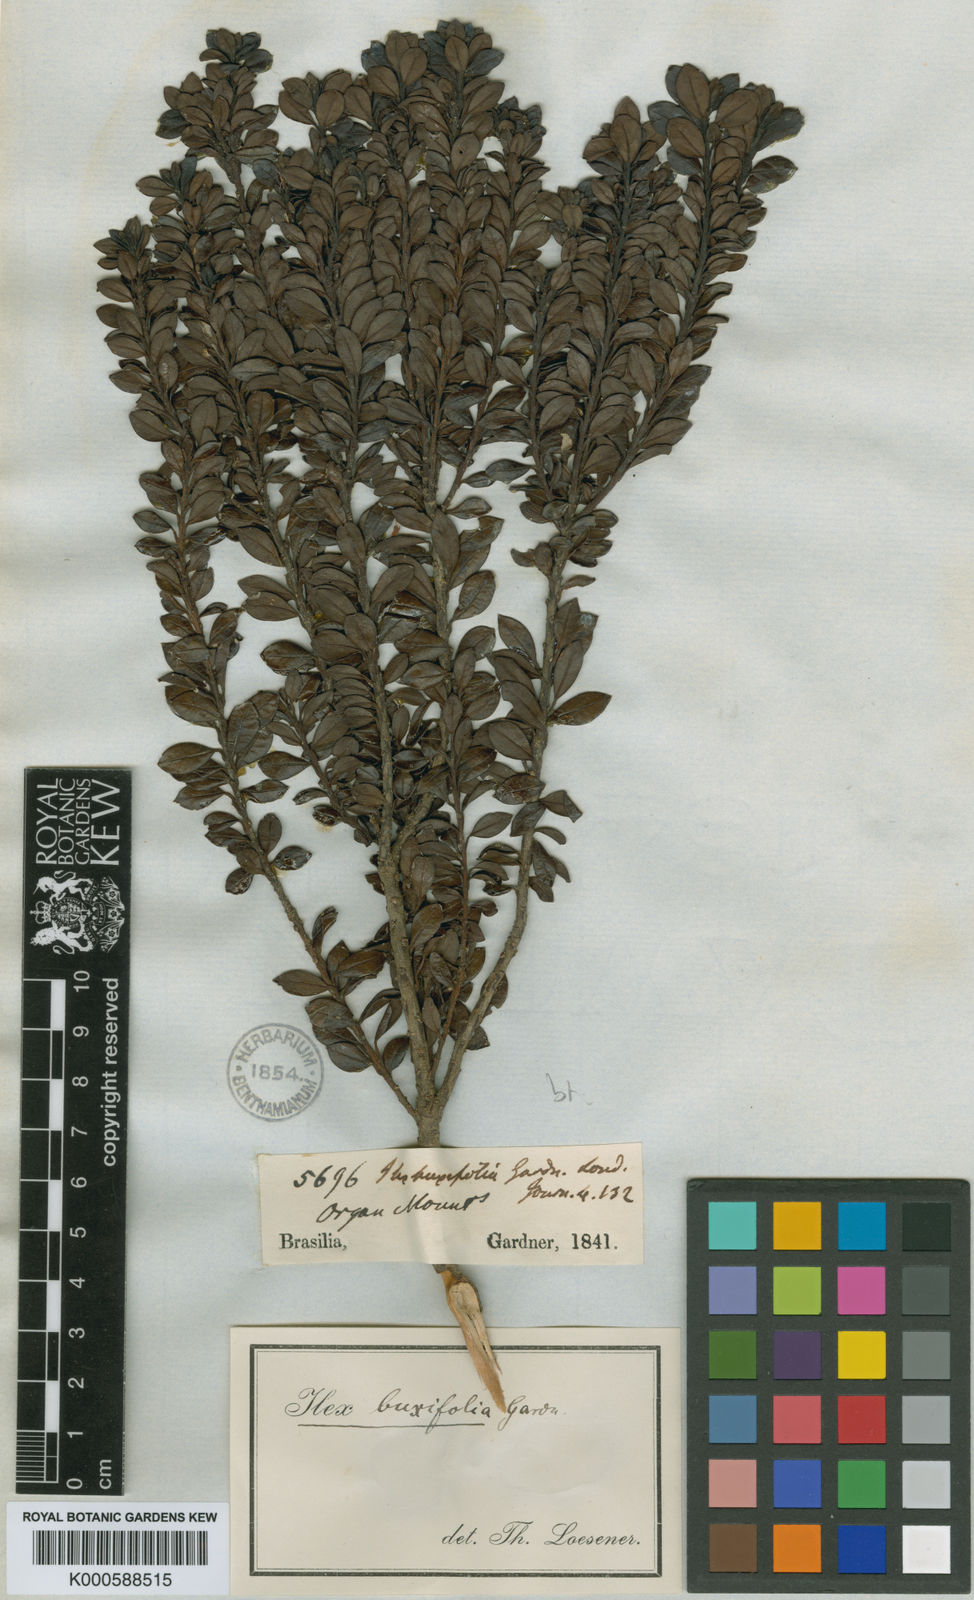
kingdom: Plantae
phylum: Tracheophyta
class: Magnoliopsida
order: Aquifoliales
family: Aquifoliaceae
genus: Ilex
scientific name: Ilex buxifolia
